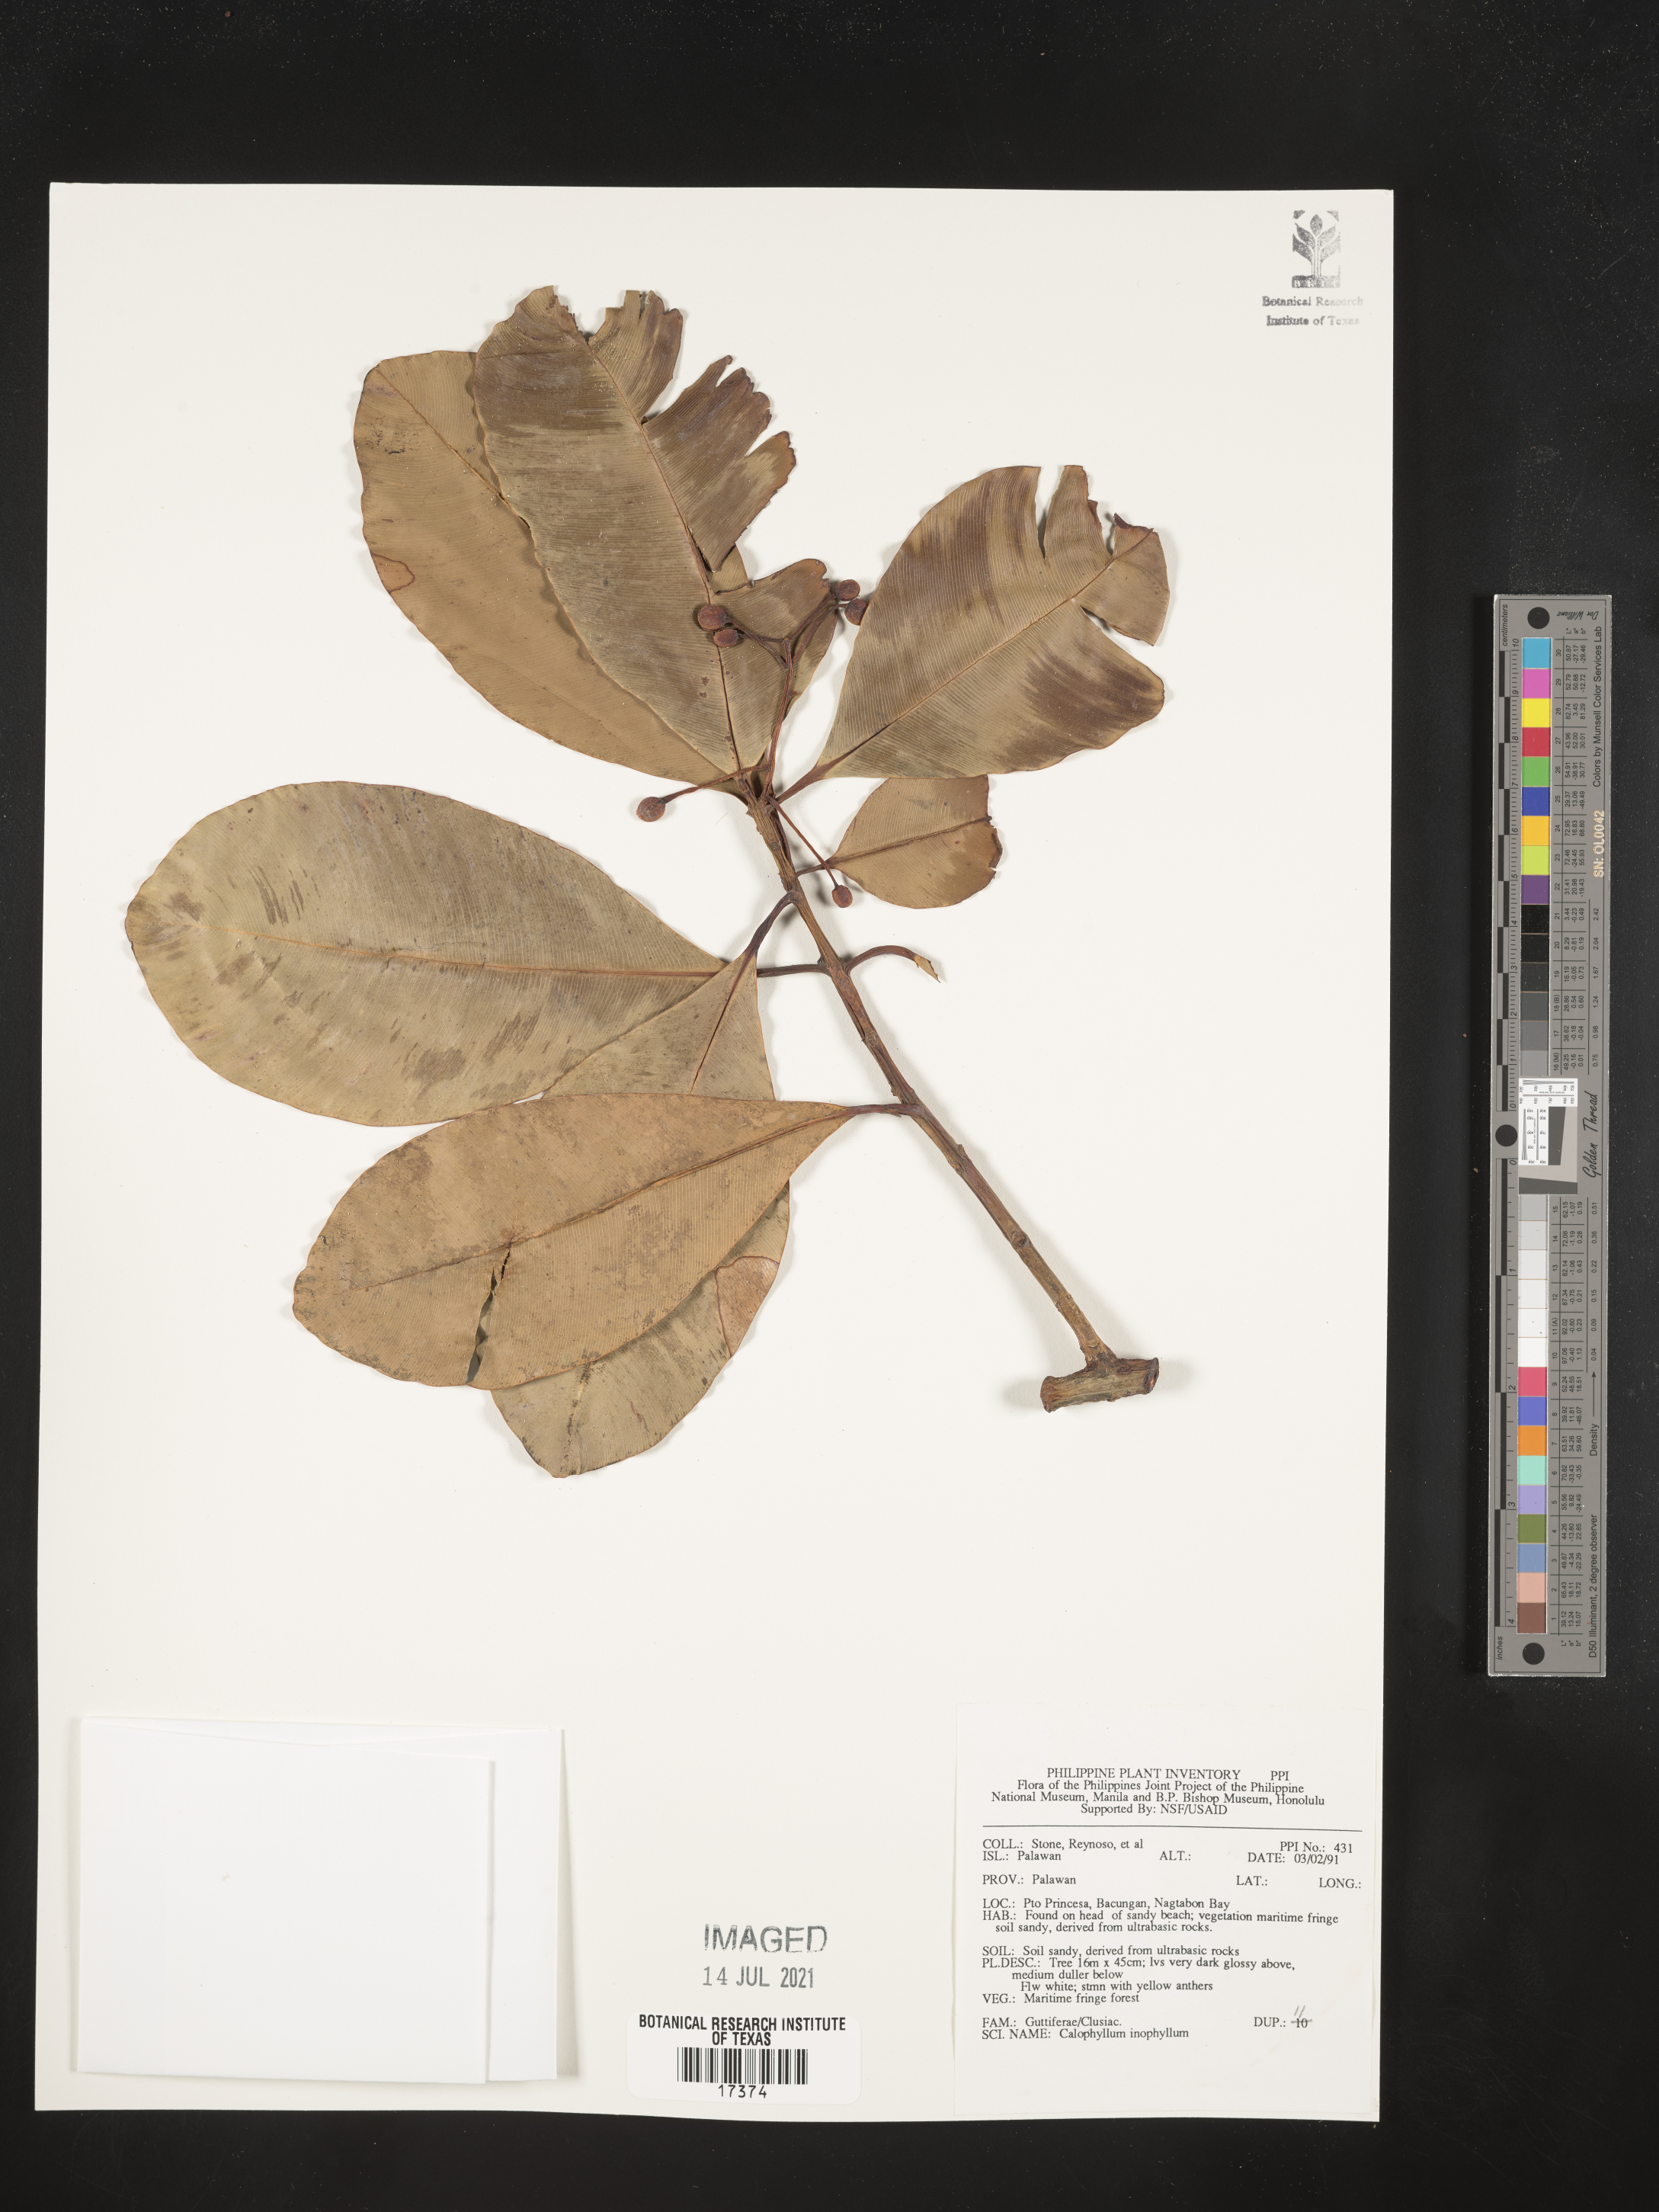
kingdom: Plantae
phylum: Tracheophyta
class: Magnoliopsida
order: Malpighiales
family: Calophyllaceae
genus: Calophyllum
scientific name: Calophyllum inophyllum
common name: Alexandrian laurel
